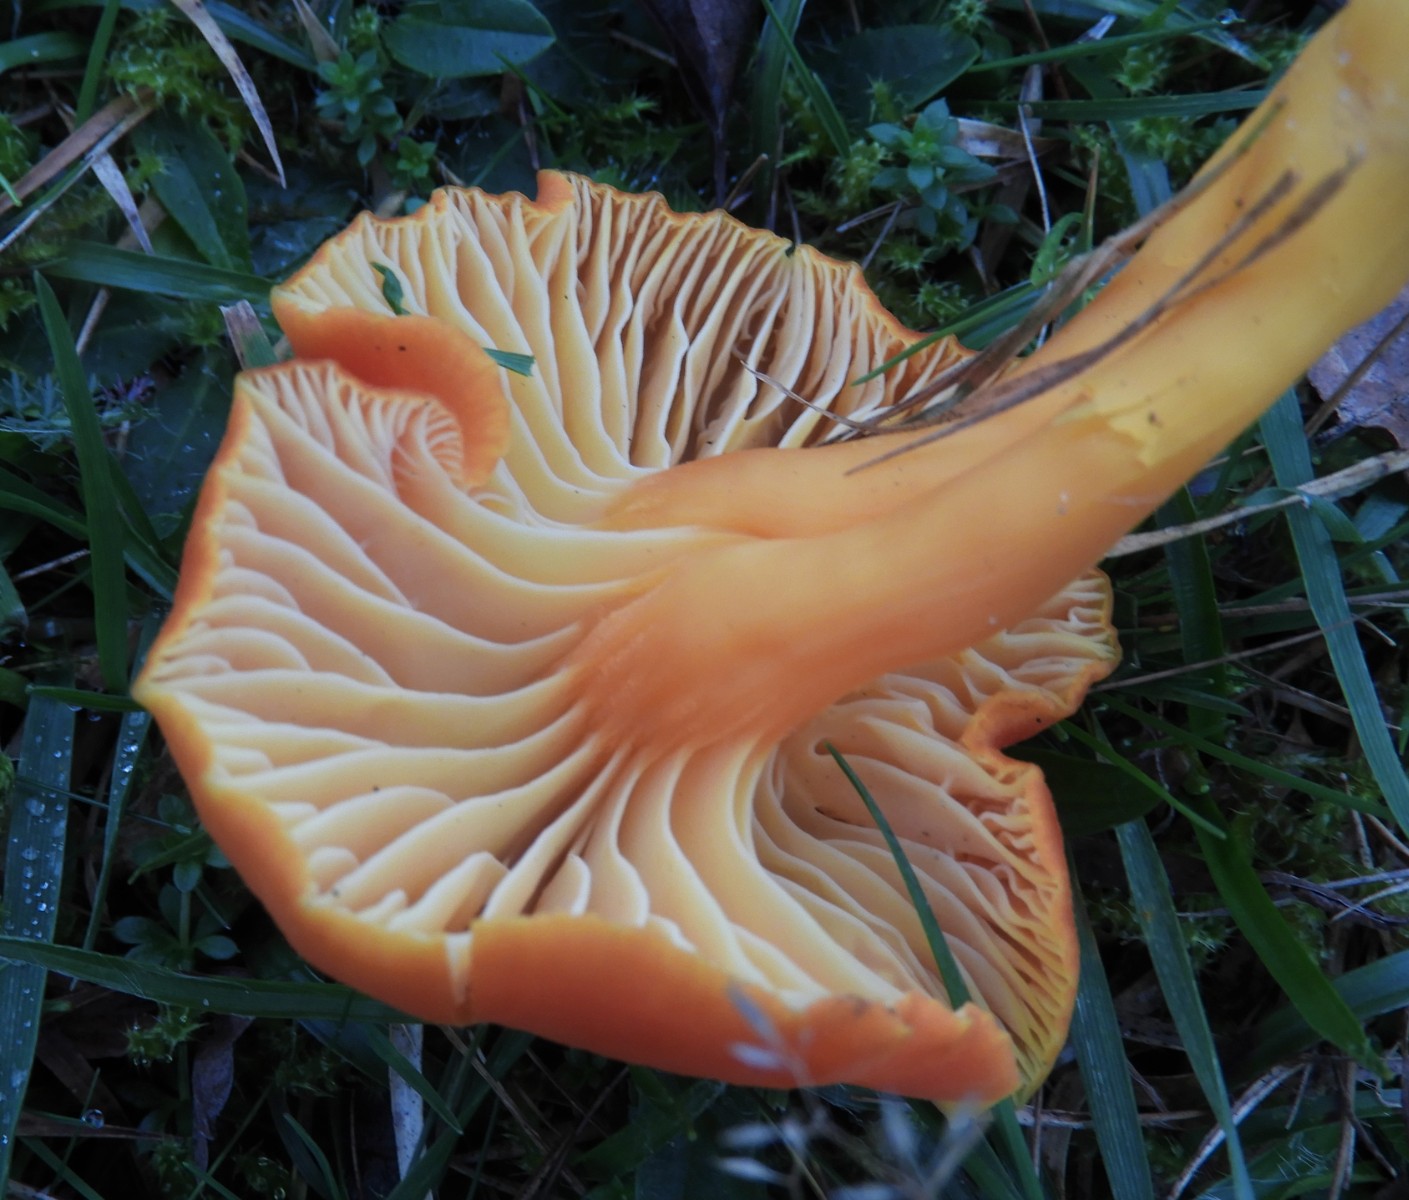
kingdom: Fungi
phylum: Basidiomycota
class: Agaricomycetes
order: Agaricales
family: Hygrophoraceae
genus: Cuphophyllus
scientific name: Cuphophyllus pratensis
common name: eng-vokshat
